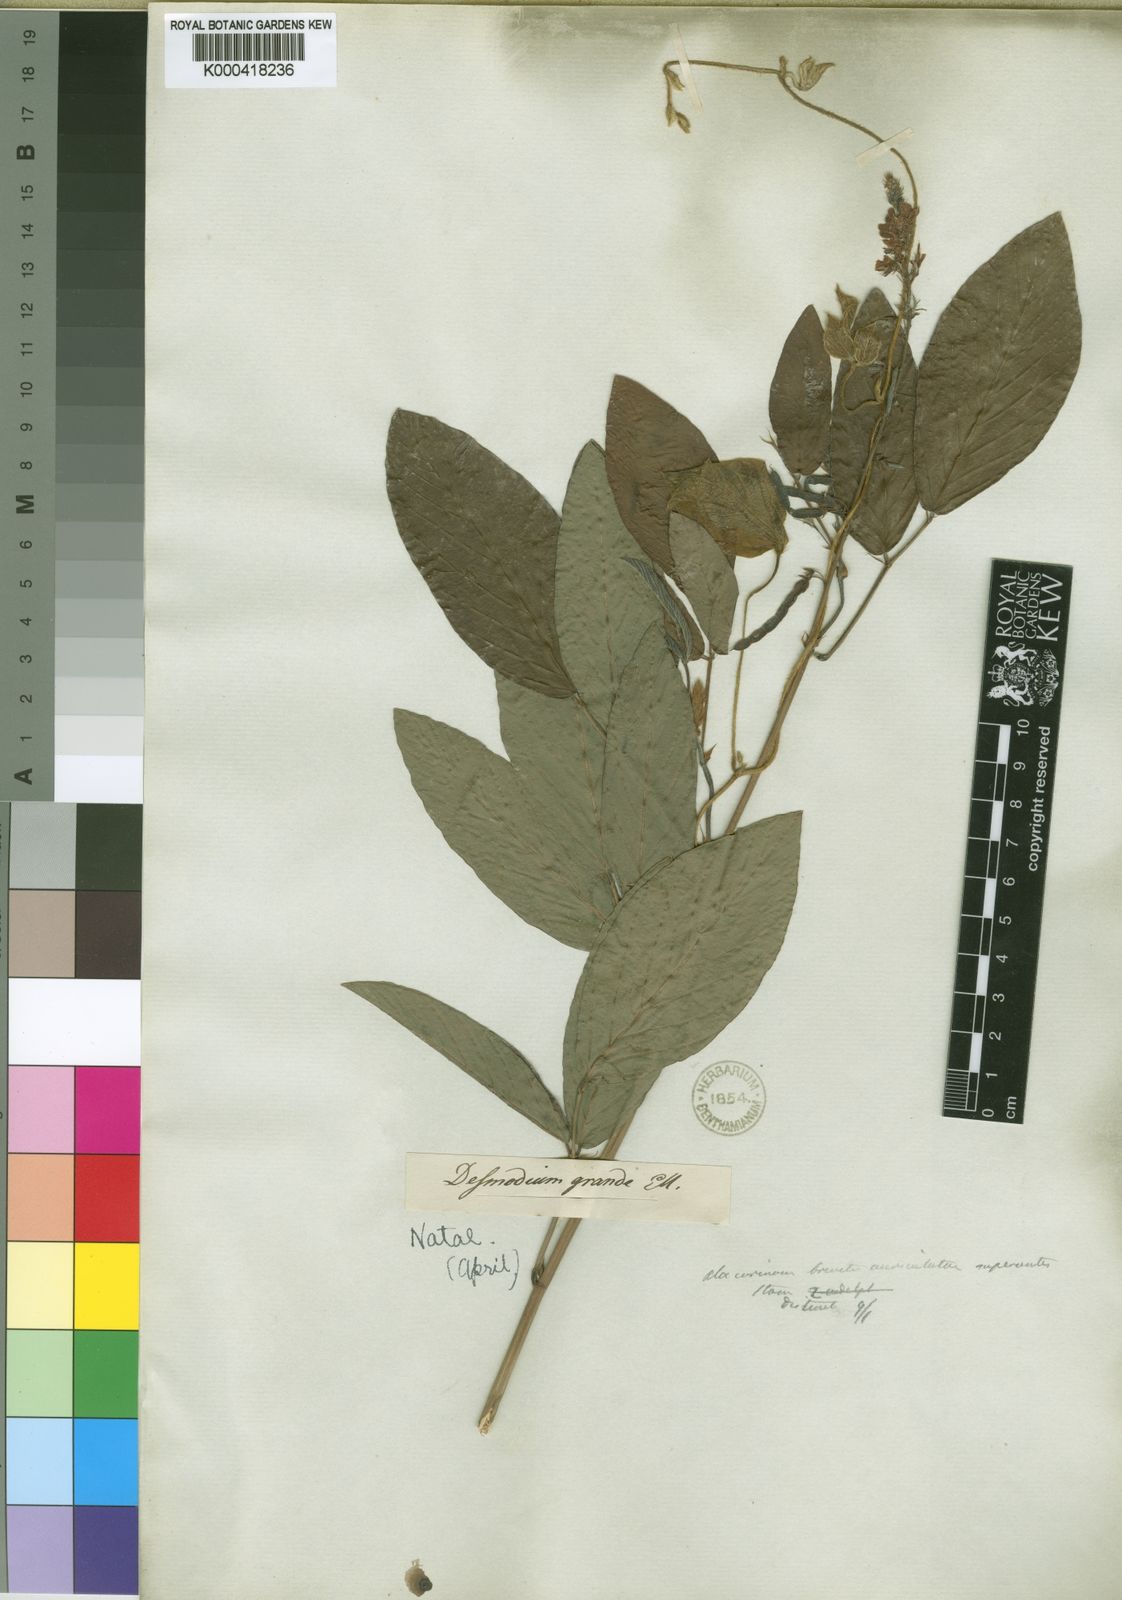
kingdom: Plantae
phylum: Tracheophyta
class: Magnoliopsida
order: Fabales
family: Fabaceae
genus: Desmodium
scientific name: Desmodium
